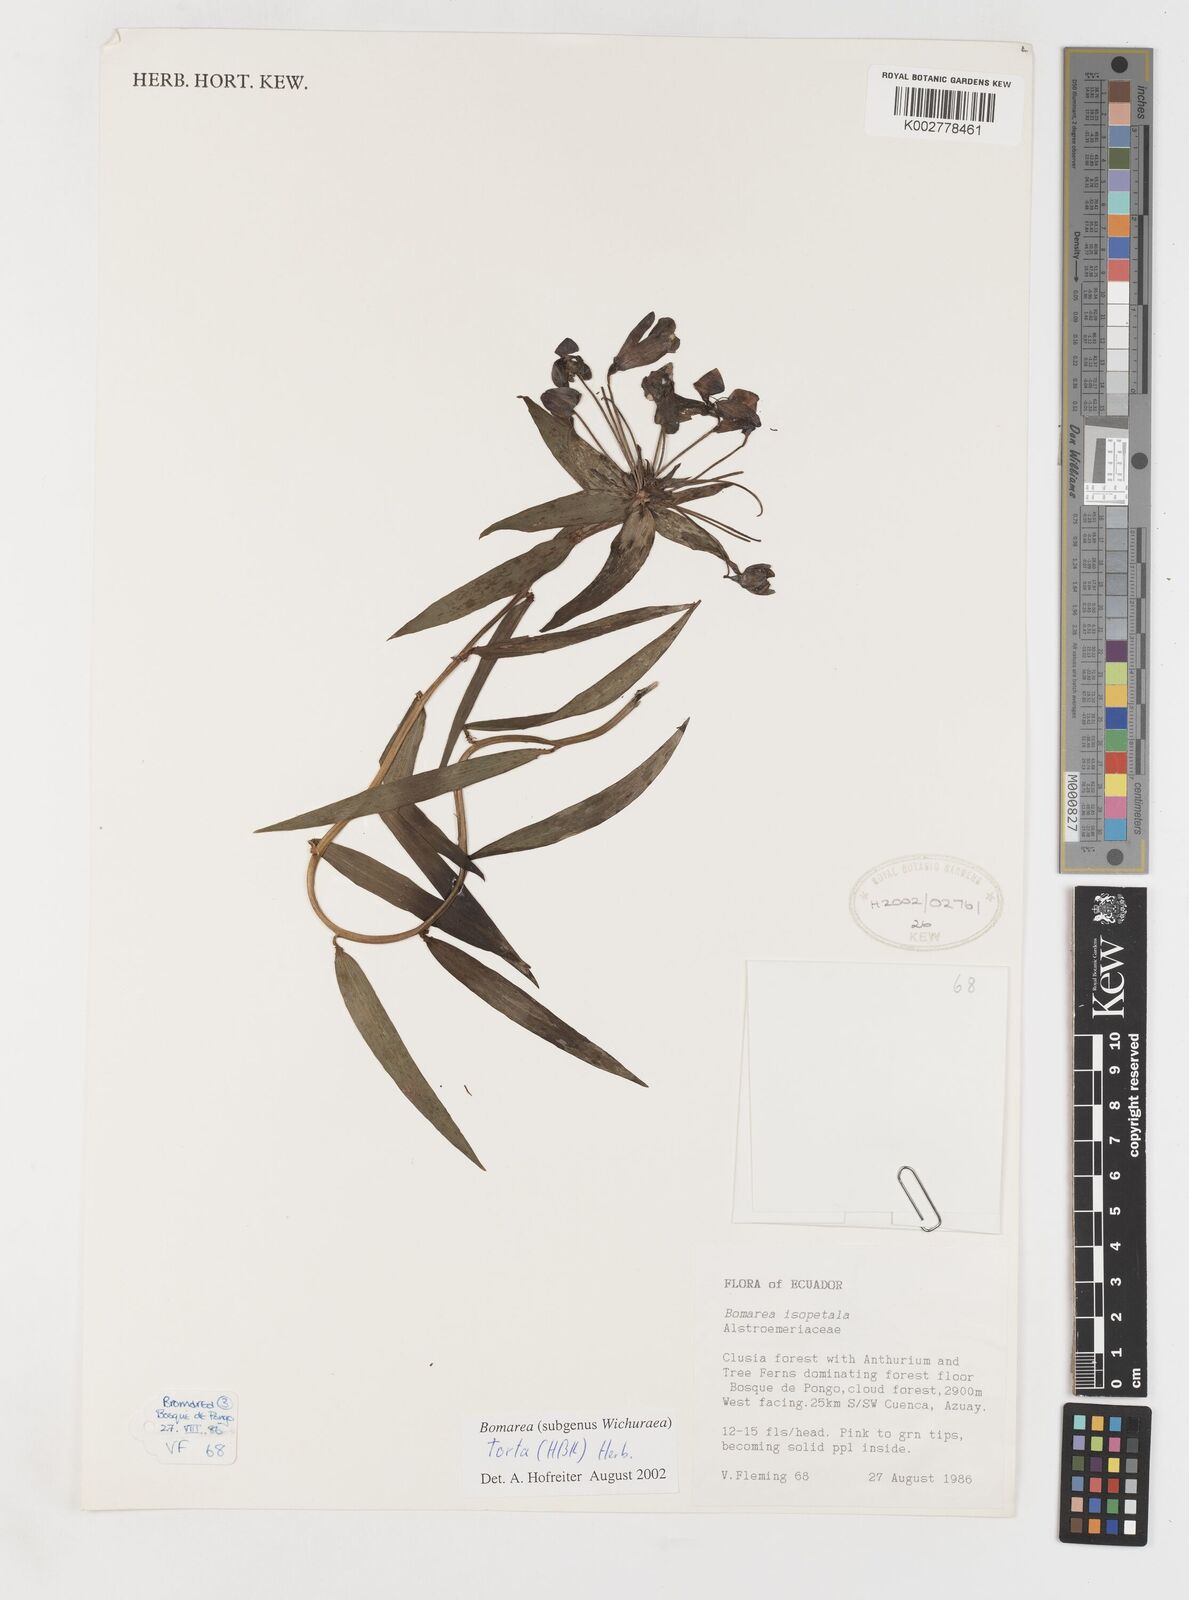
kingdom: Plantae
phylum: Tracheophyta
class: Liliopsida
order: Liliales
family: Alstroemeriaceae
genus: Bomarea
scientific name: Bomarea torta
